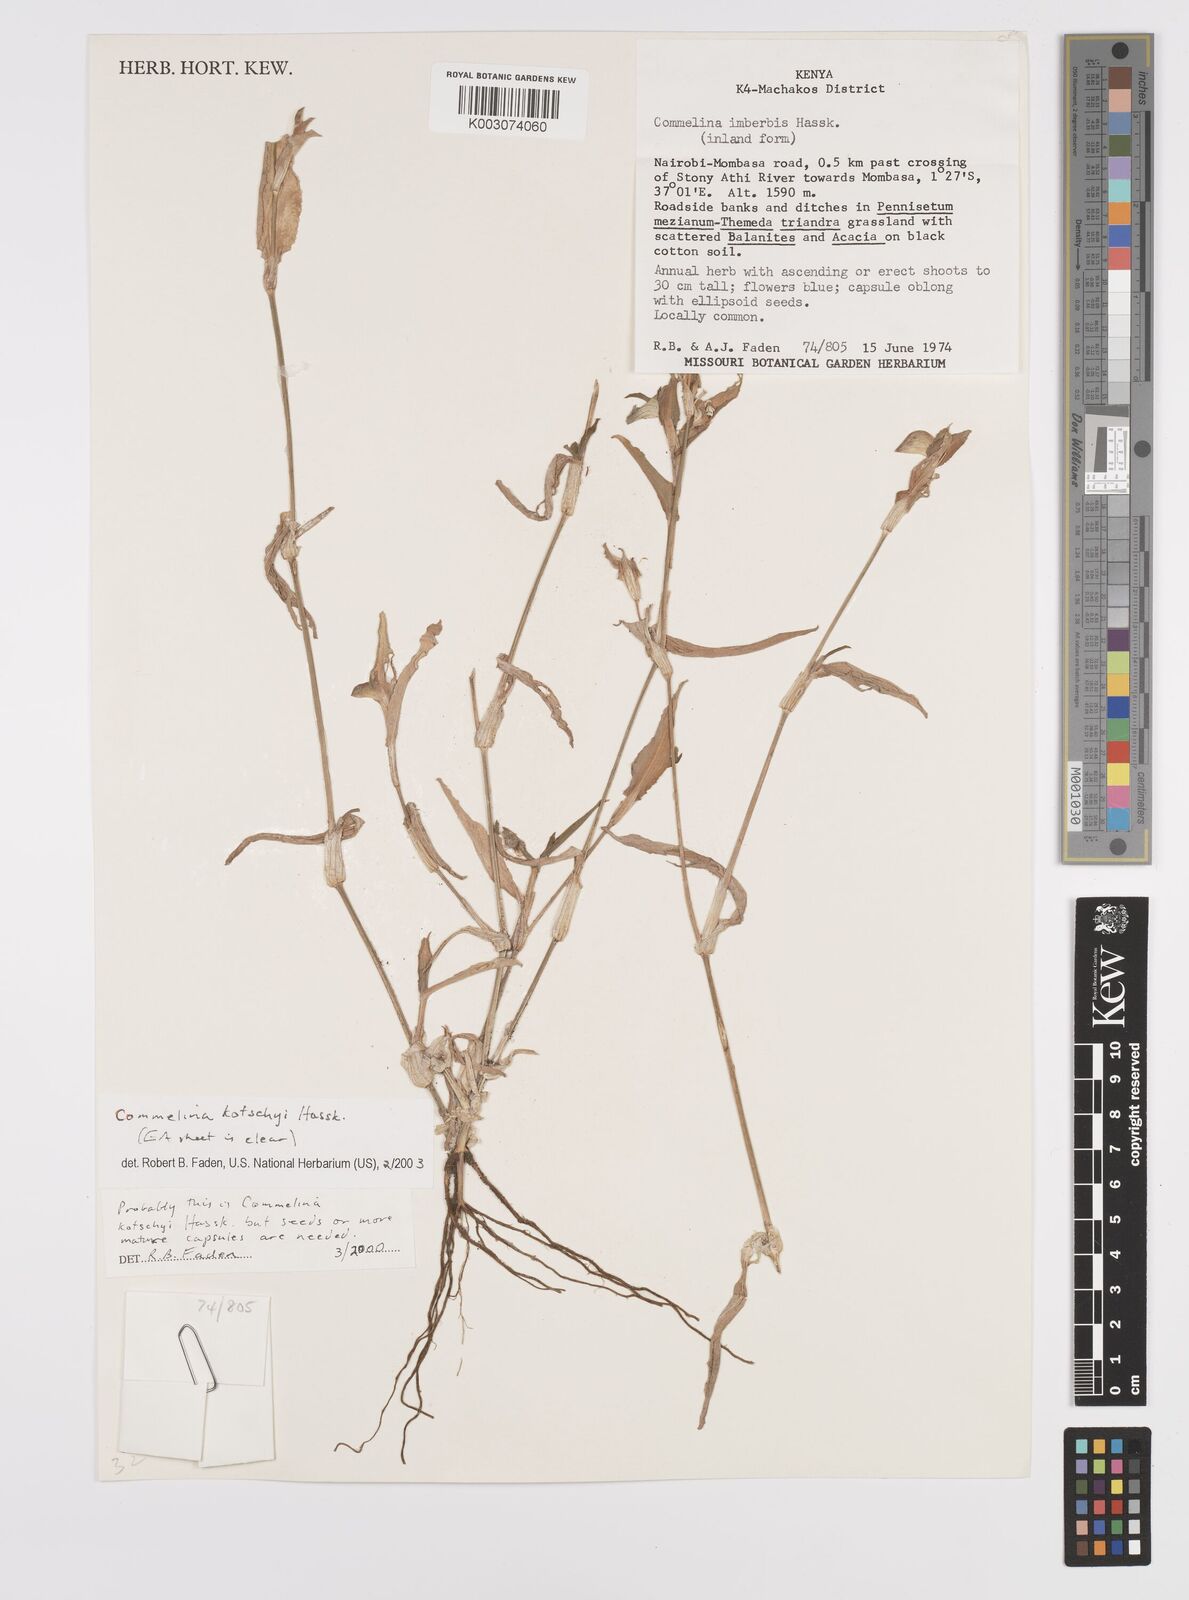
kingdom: Plantae
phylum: Tracheophyta
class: Liliopsida
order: Commelinales
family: Commelinaceae
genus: Commelina
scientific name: Commelina kotschyi
